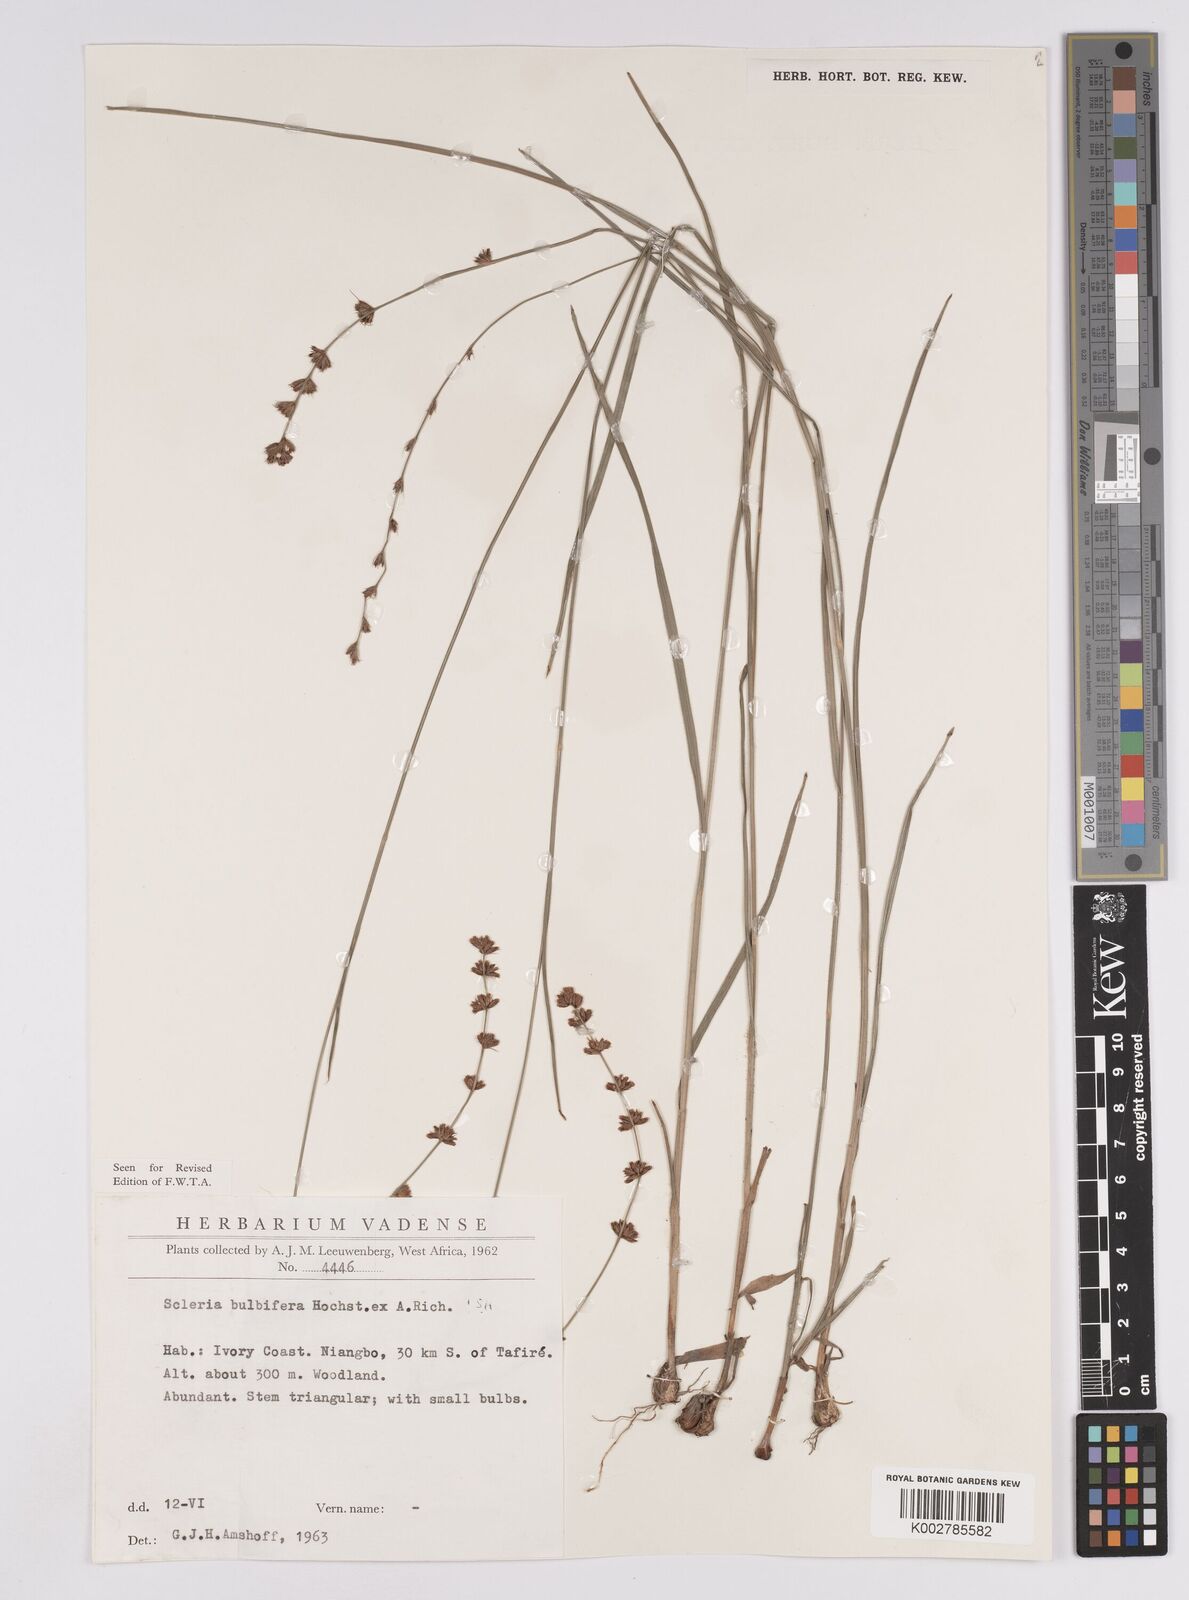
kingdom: Plantae
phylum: Tracheophyta
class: Liliopsida
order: Poales
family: Cyperaceae
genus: Scleria
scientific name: Scleria bulbifera
